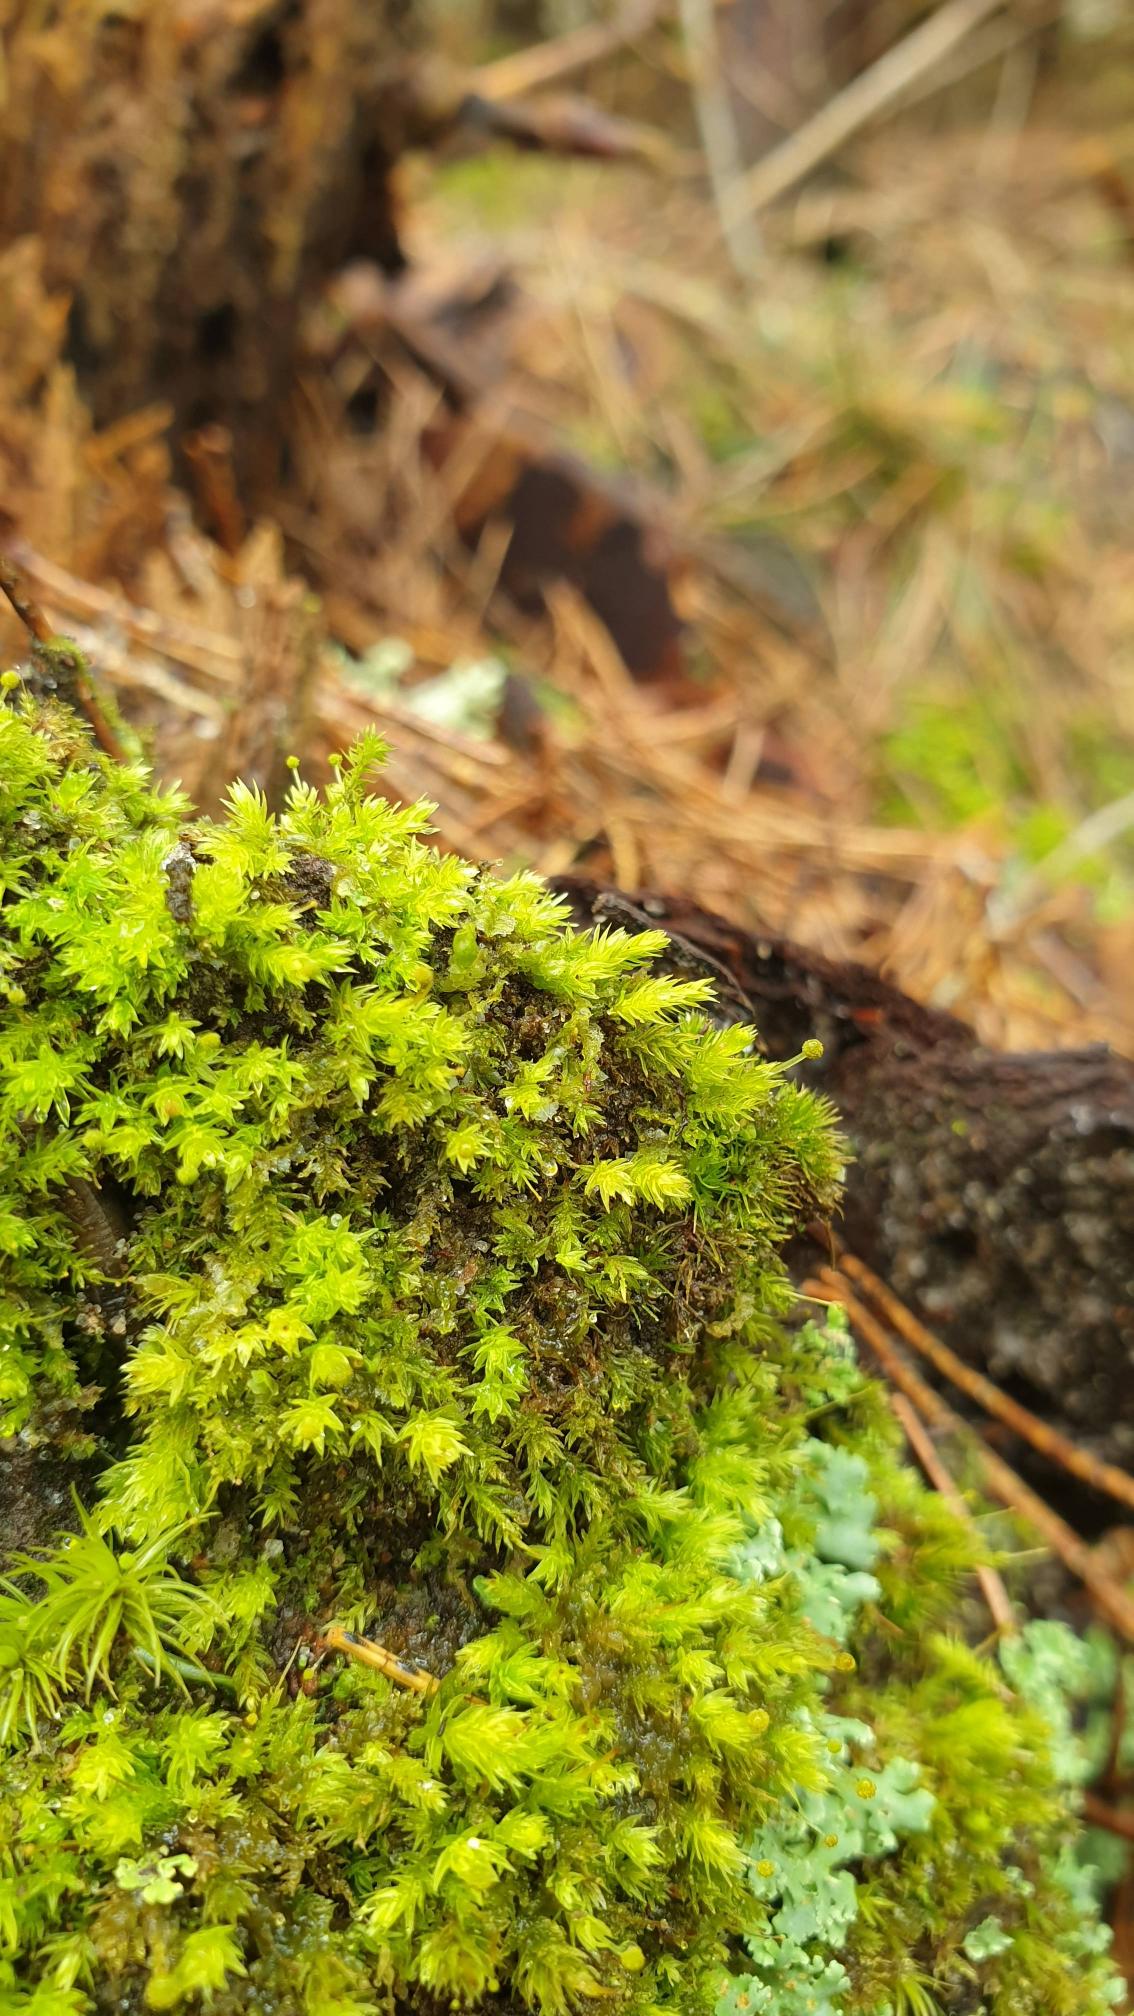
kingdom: Plantae
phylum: Bryophyta
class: Bryopsida
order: Aulacomniales
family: Aulacomniaceae
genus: Aulacomnium
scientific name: Aulacomnium androgynum
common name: Kugle-filtmos
